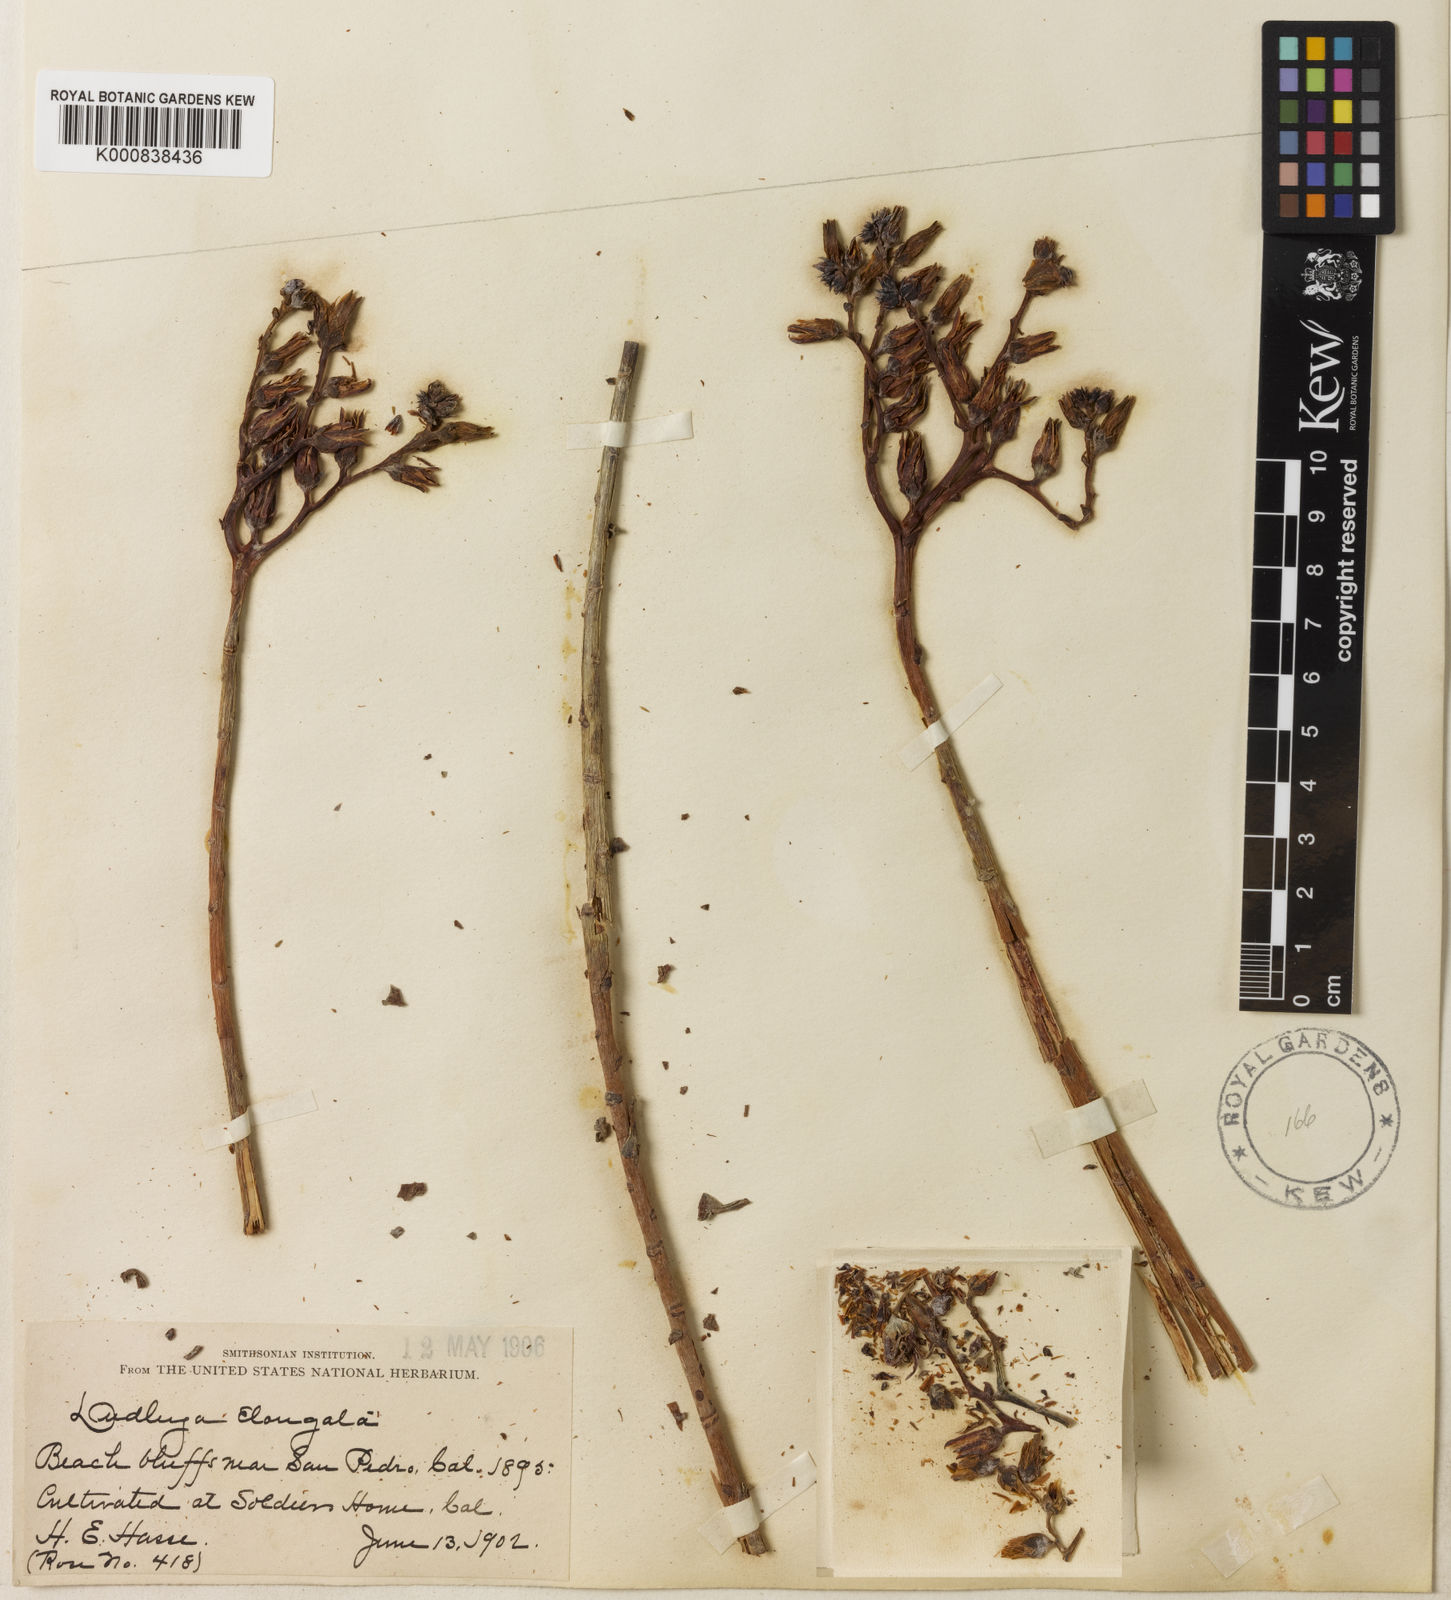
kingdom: Plantae
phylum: Tracheophyta
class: Magnoliopsida
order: Saxifragales
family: Crassulaceae
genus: Dudleya
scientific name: Dudleya lanceolata
